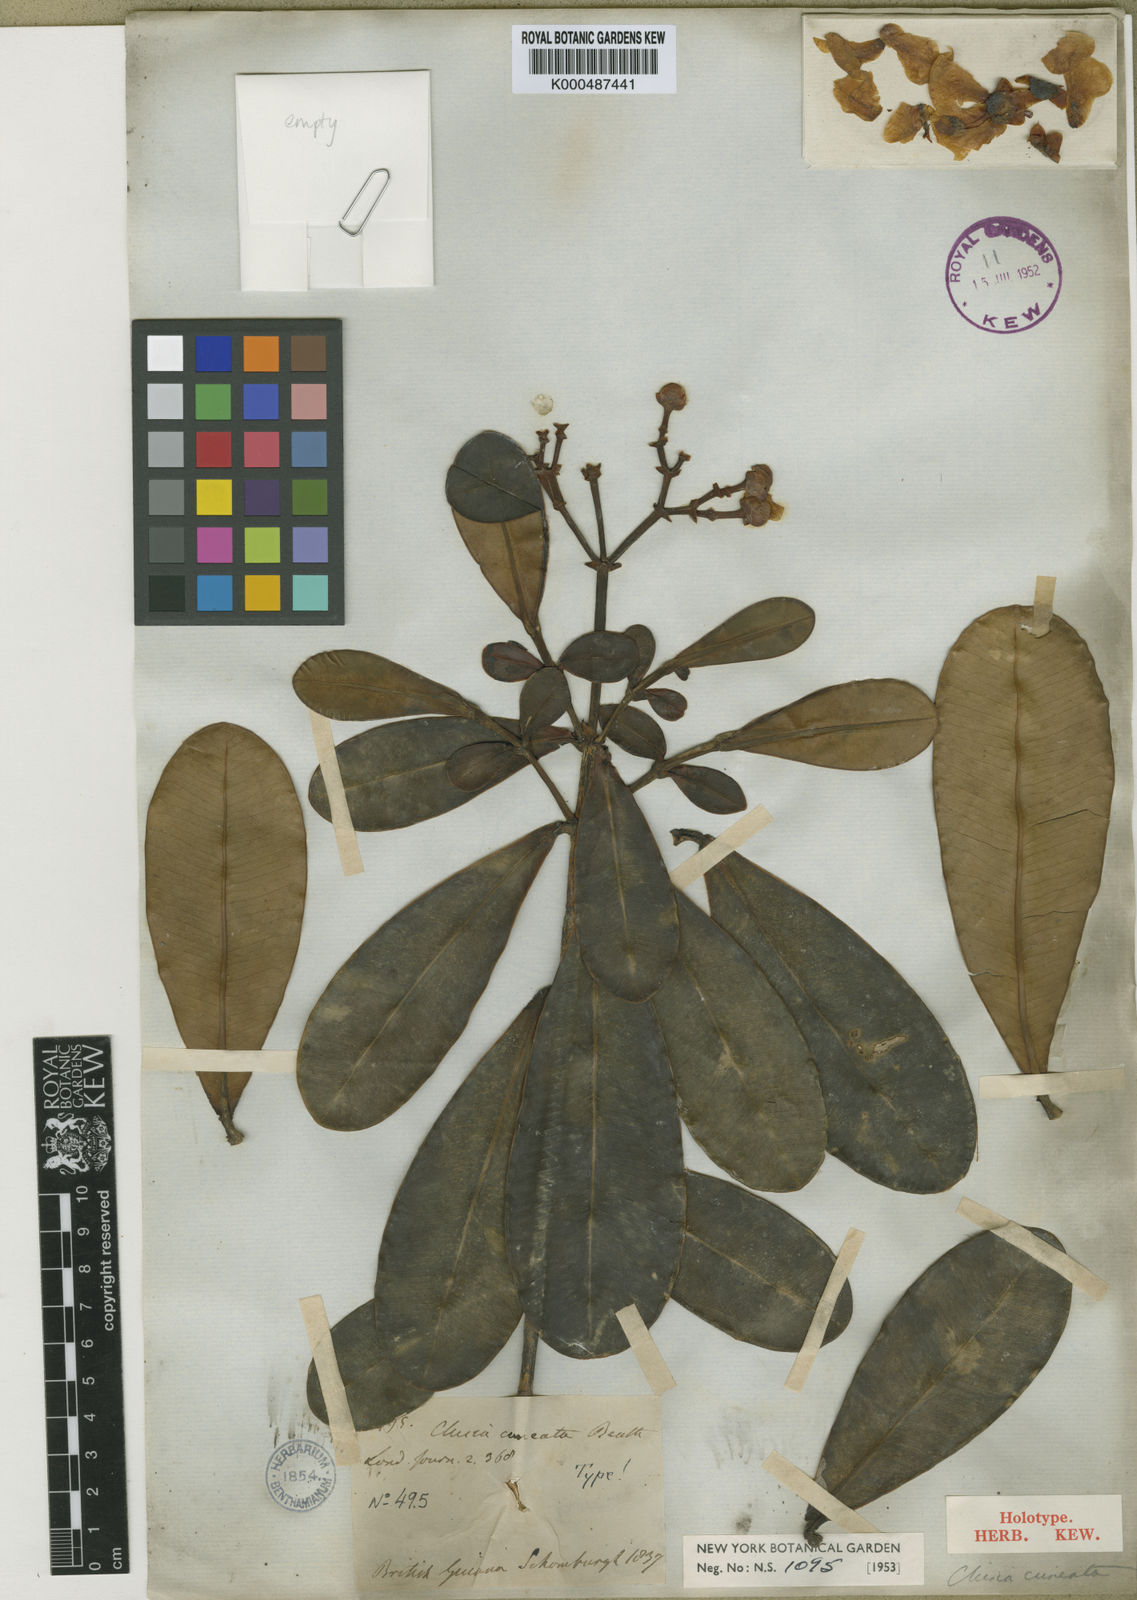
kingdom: Plantae
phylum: Tracheophyta
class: Magnoliopsida
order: Malpighiales
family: Clusiaceae
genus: Clusia
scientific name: Clusia cuneata
